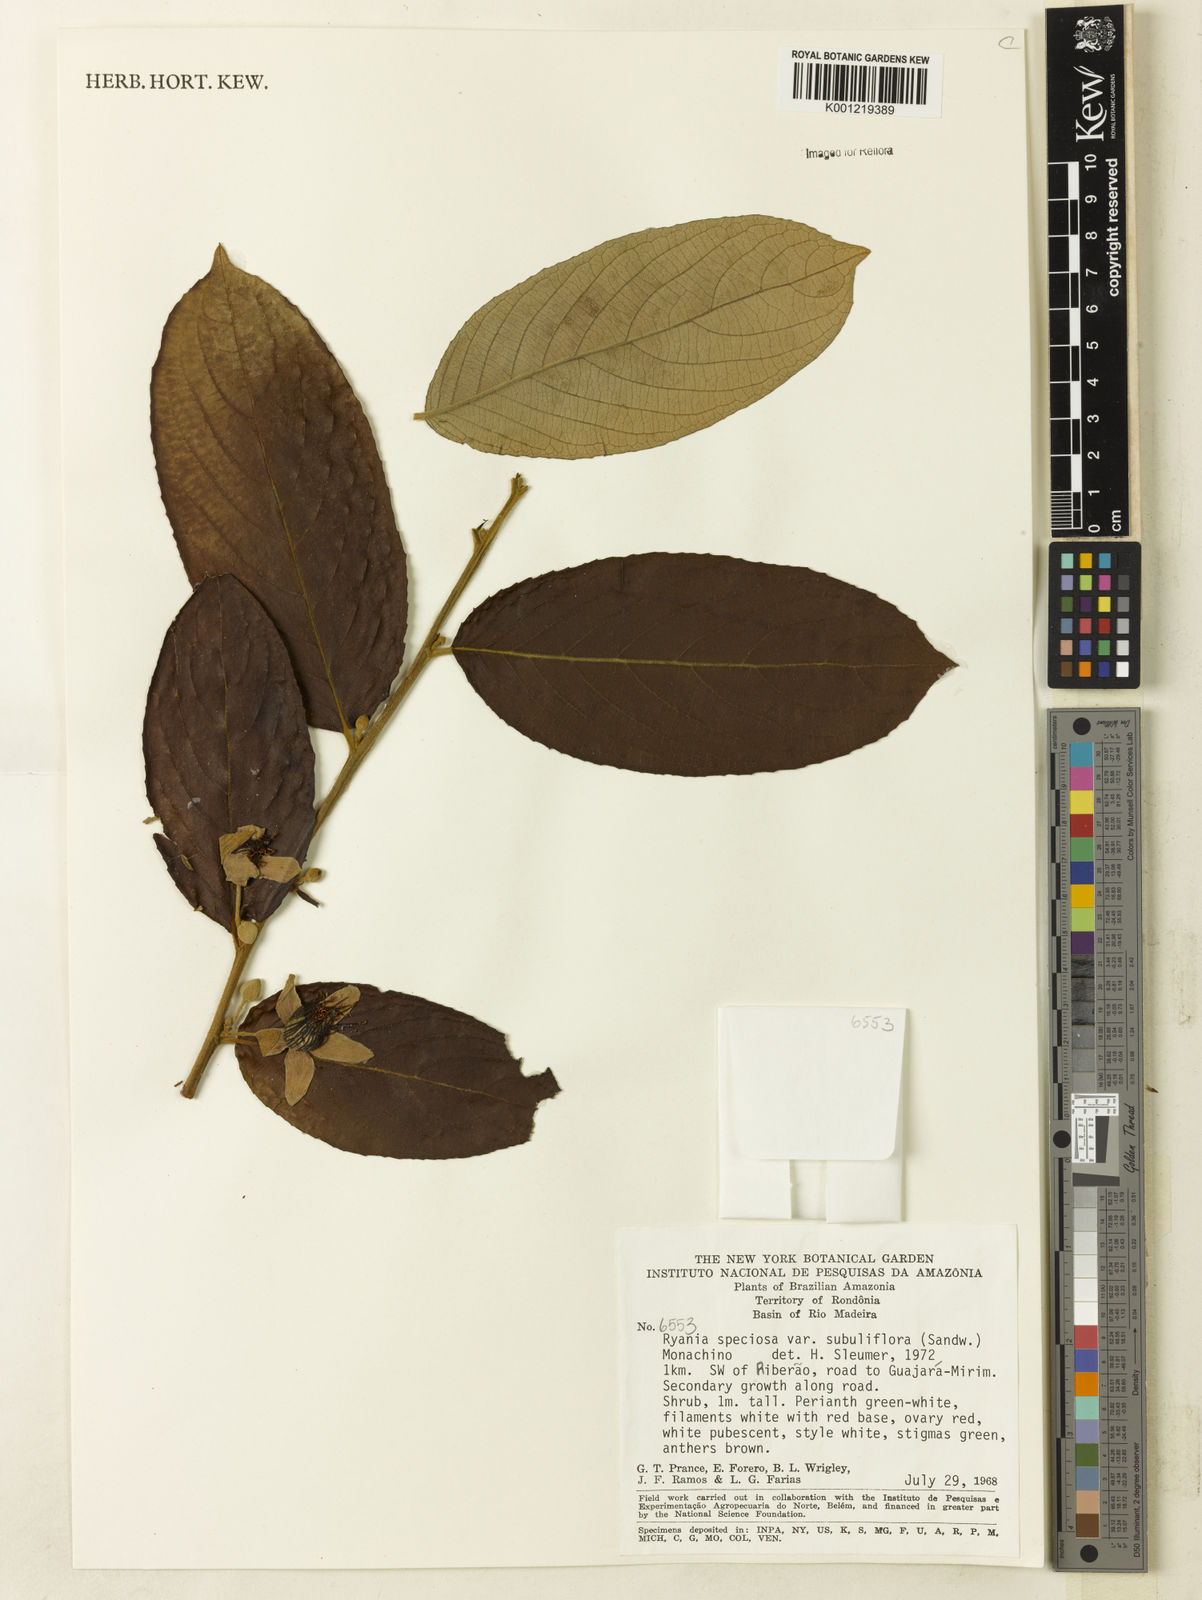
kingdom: Plantae
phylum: Tracheophyta
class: Magnoliopsida
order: Malpighiales
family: Salicaceae
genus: Ryania
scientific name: Ryania speciosa
